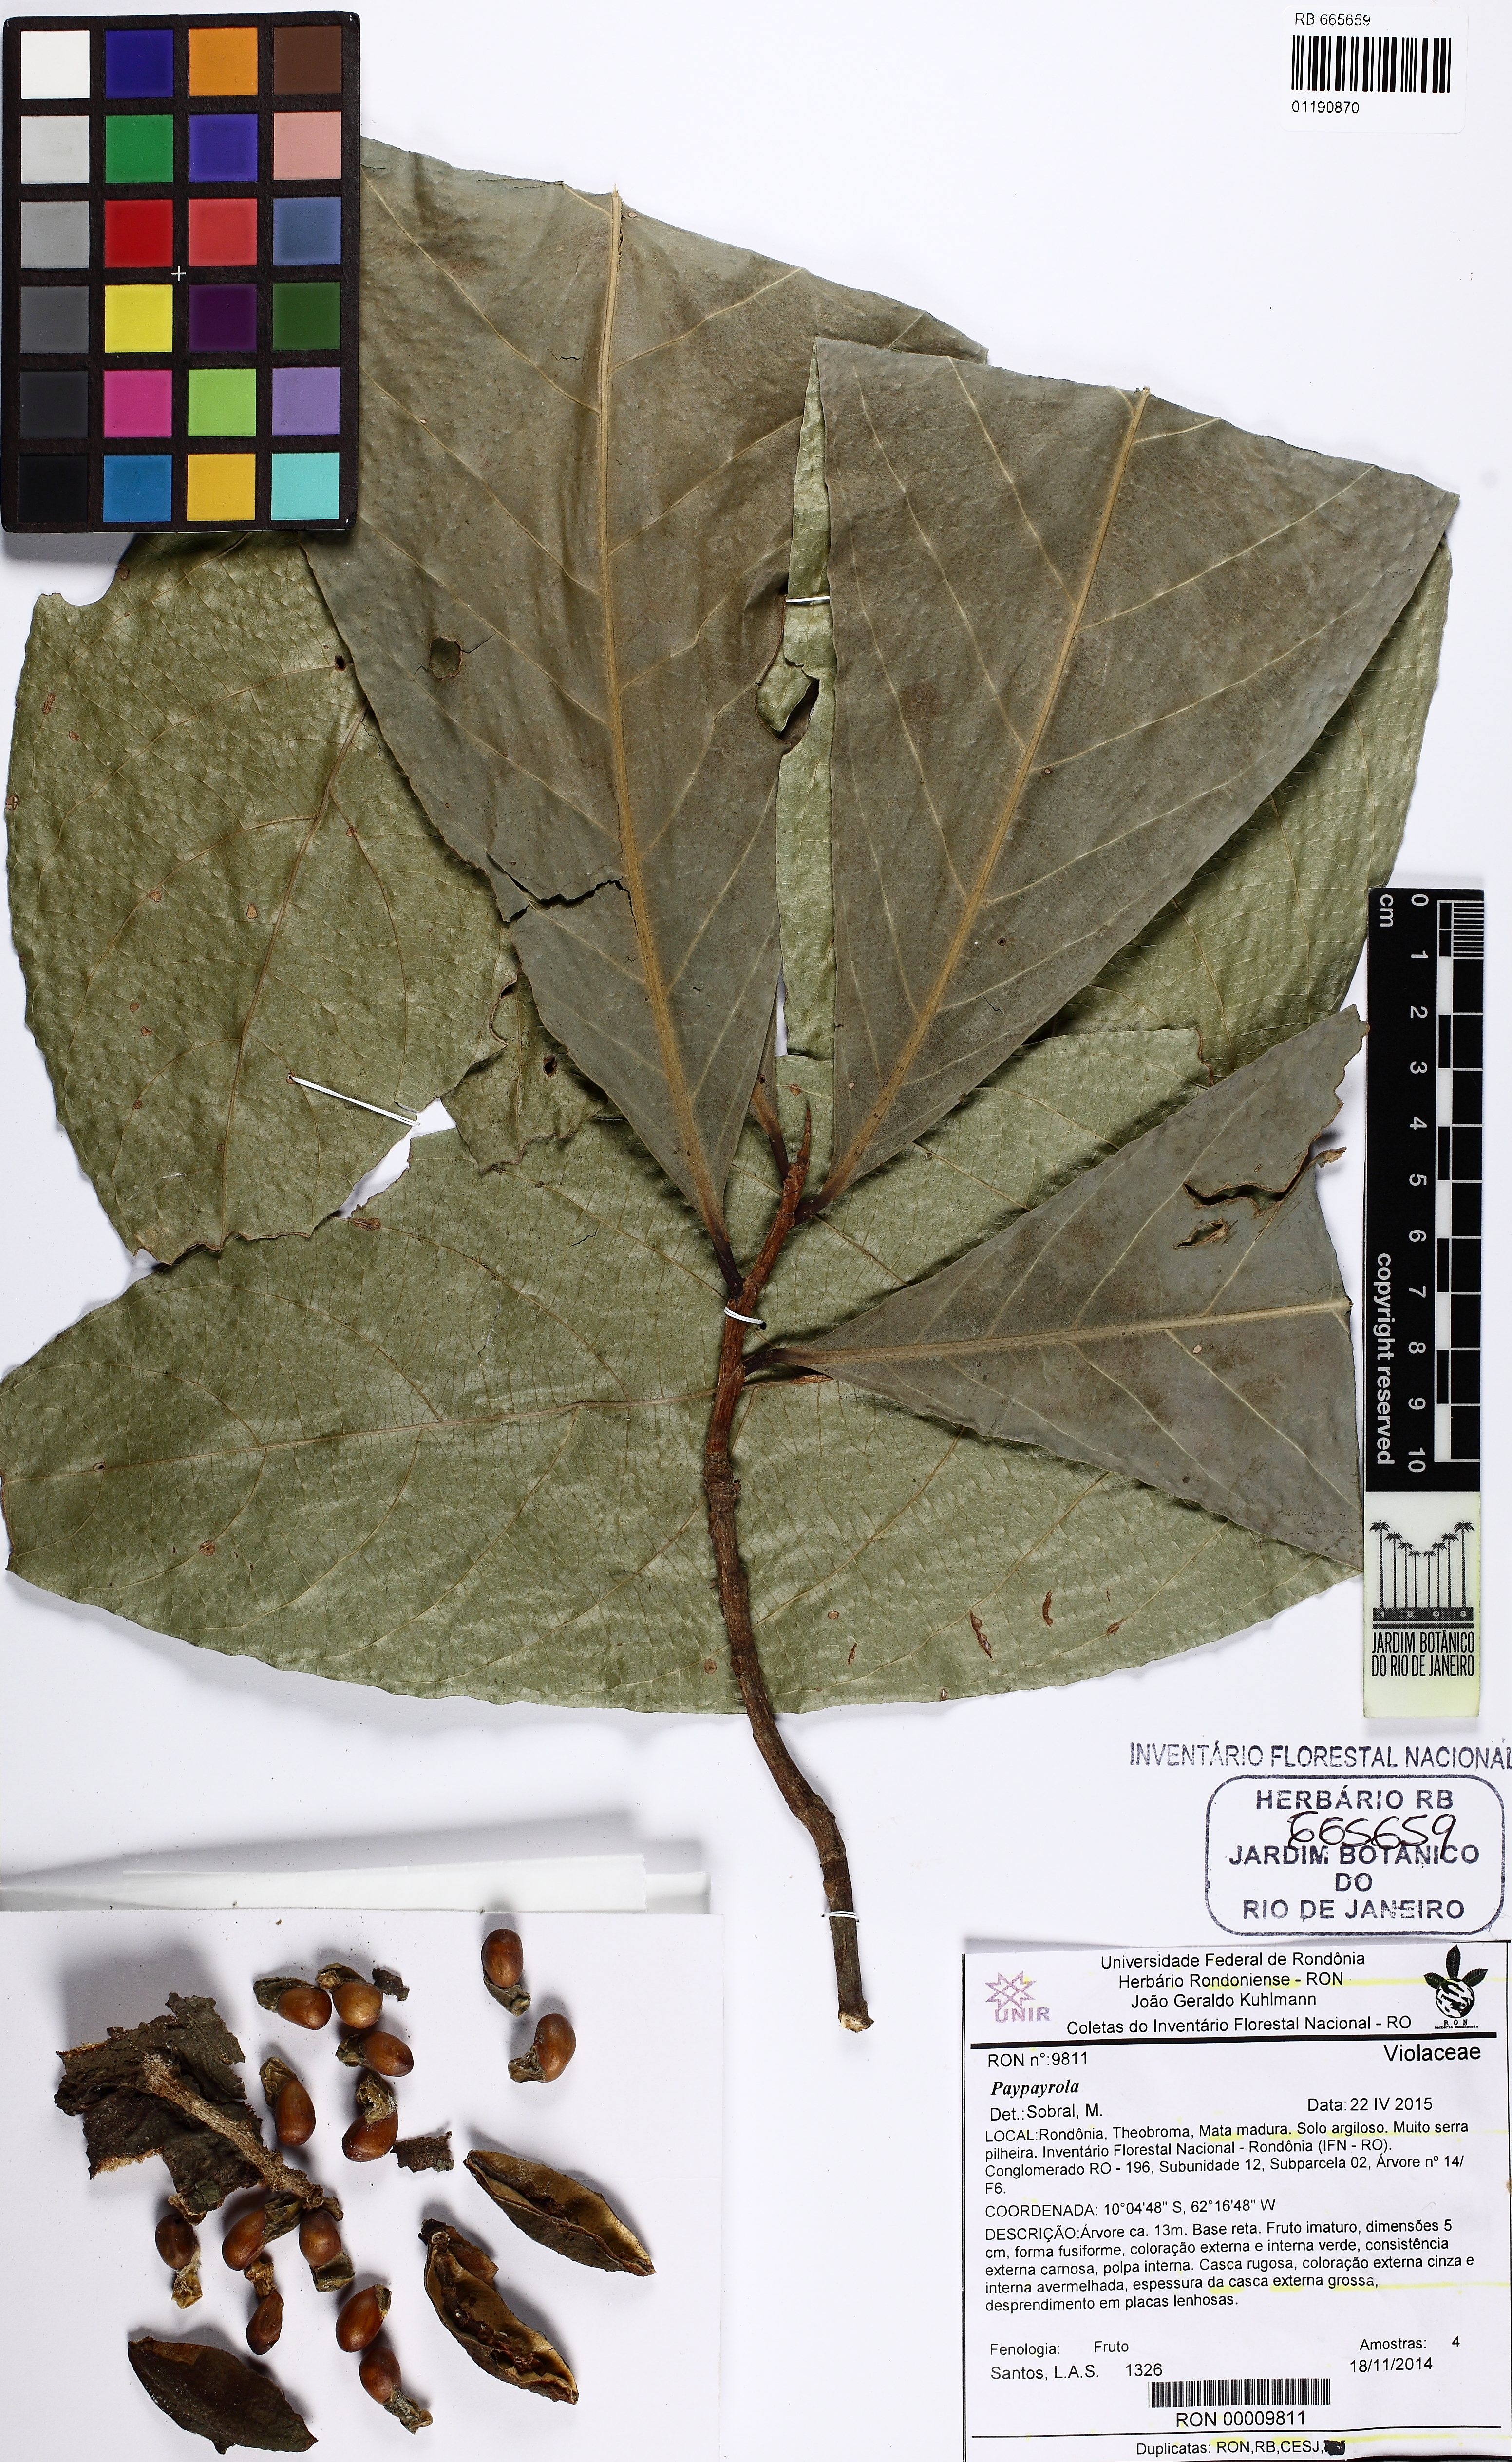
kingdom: Plantae
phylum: Tracheophyta
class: Magnoliopsida
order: Malpighiales
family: Violaceae
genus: Paypayrola
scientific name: Paypayrola grandiflora
